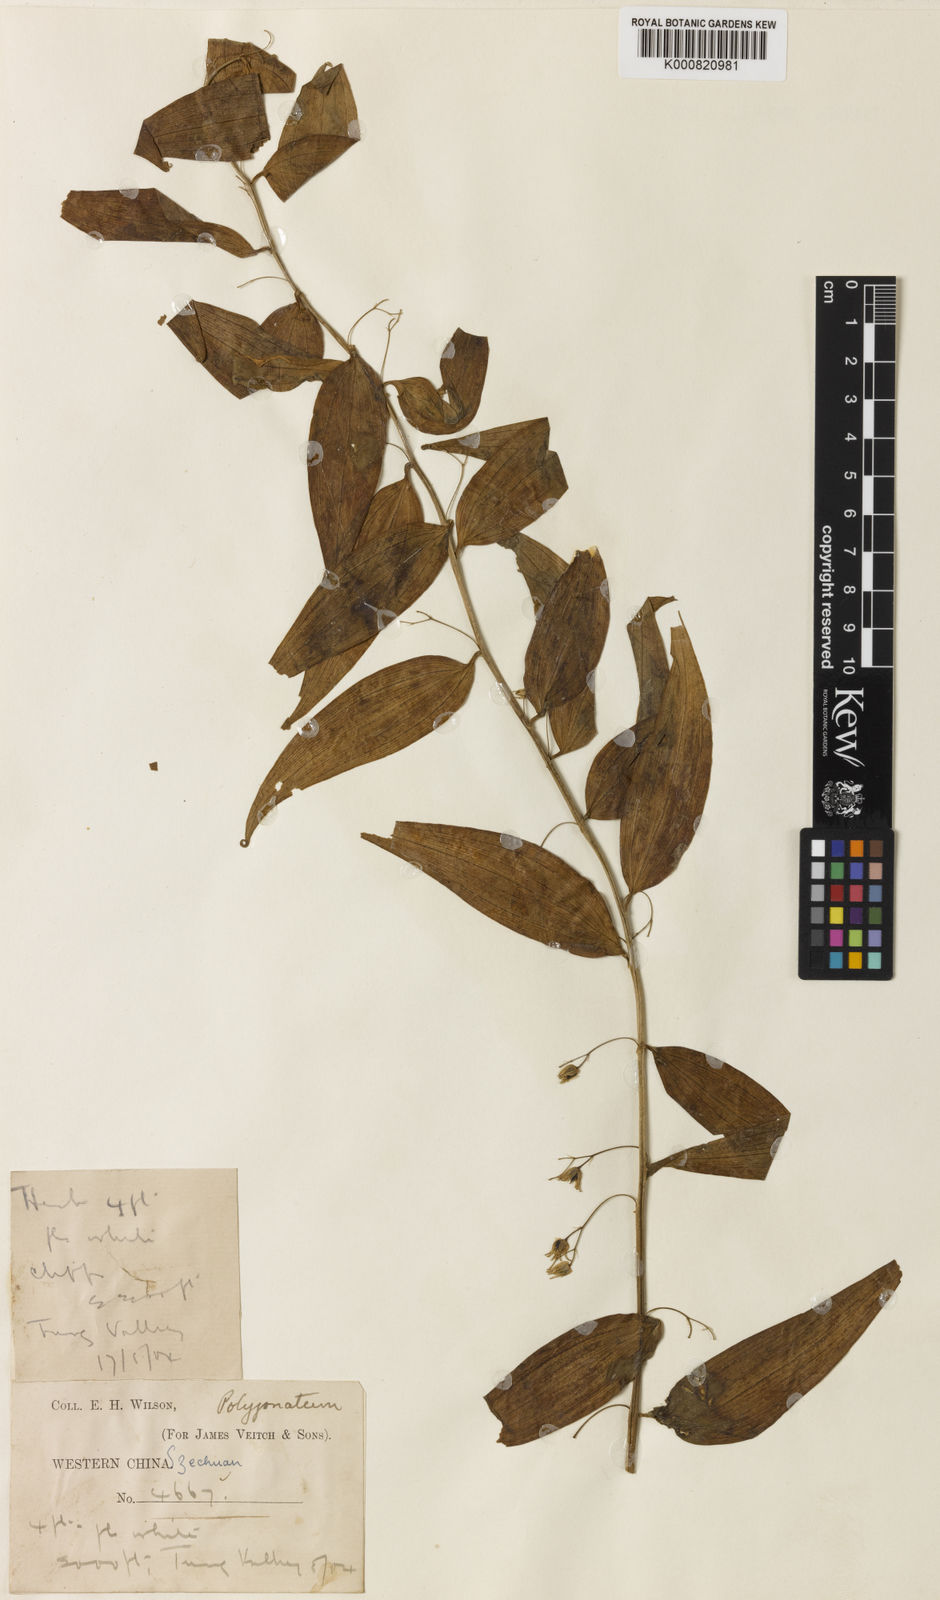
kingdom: Plantae
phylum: Tracheophyta
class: Liliopsida
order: Asparagales
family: Asparagaceae
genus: Heteropolygonatum
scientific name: Heteropolygonatum alternicirrhosum
